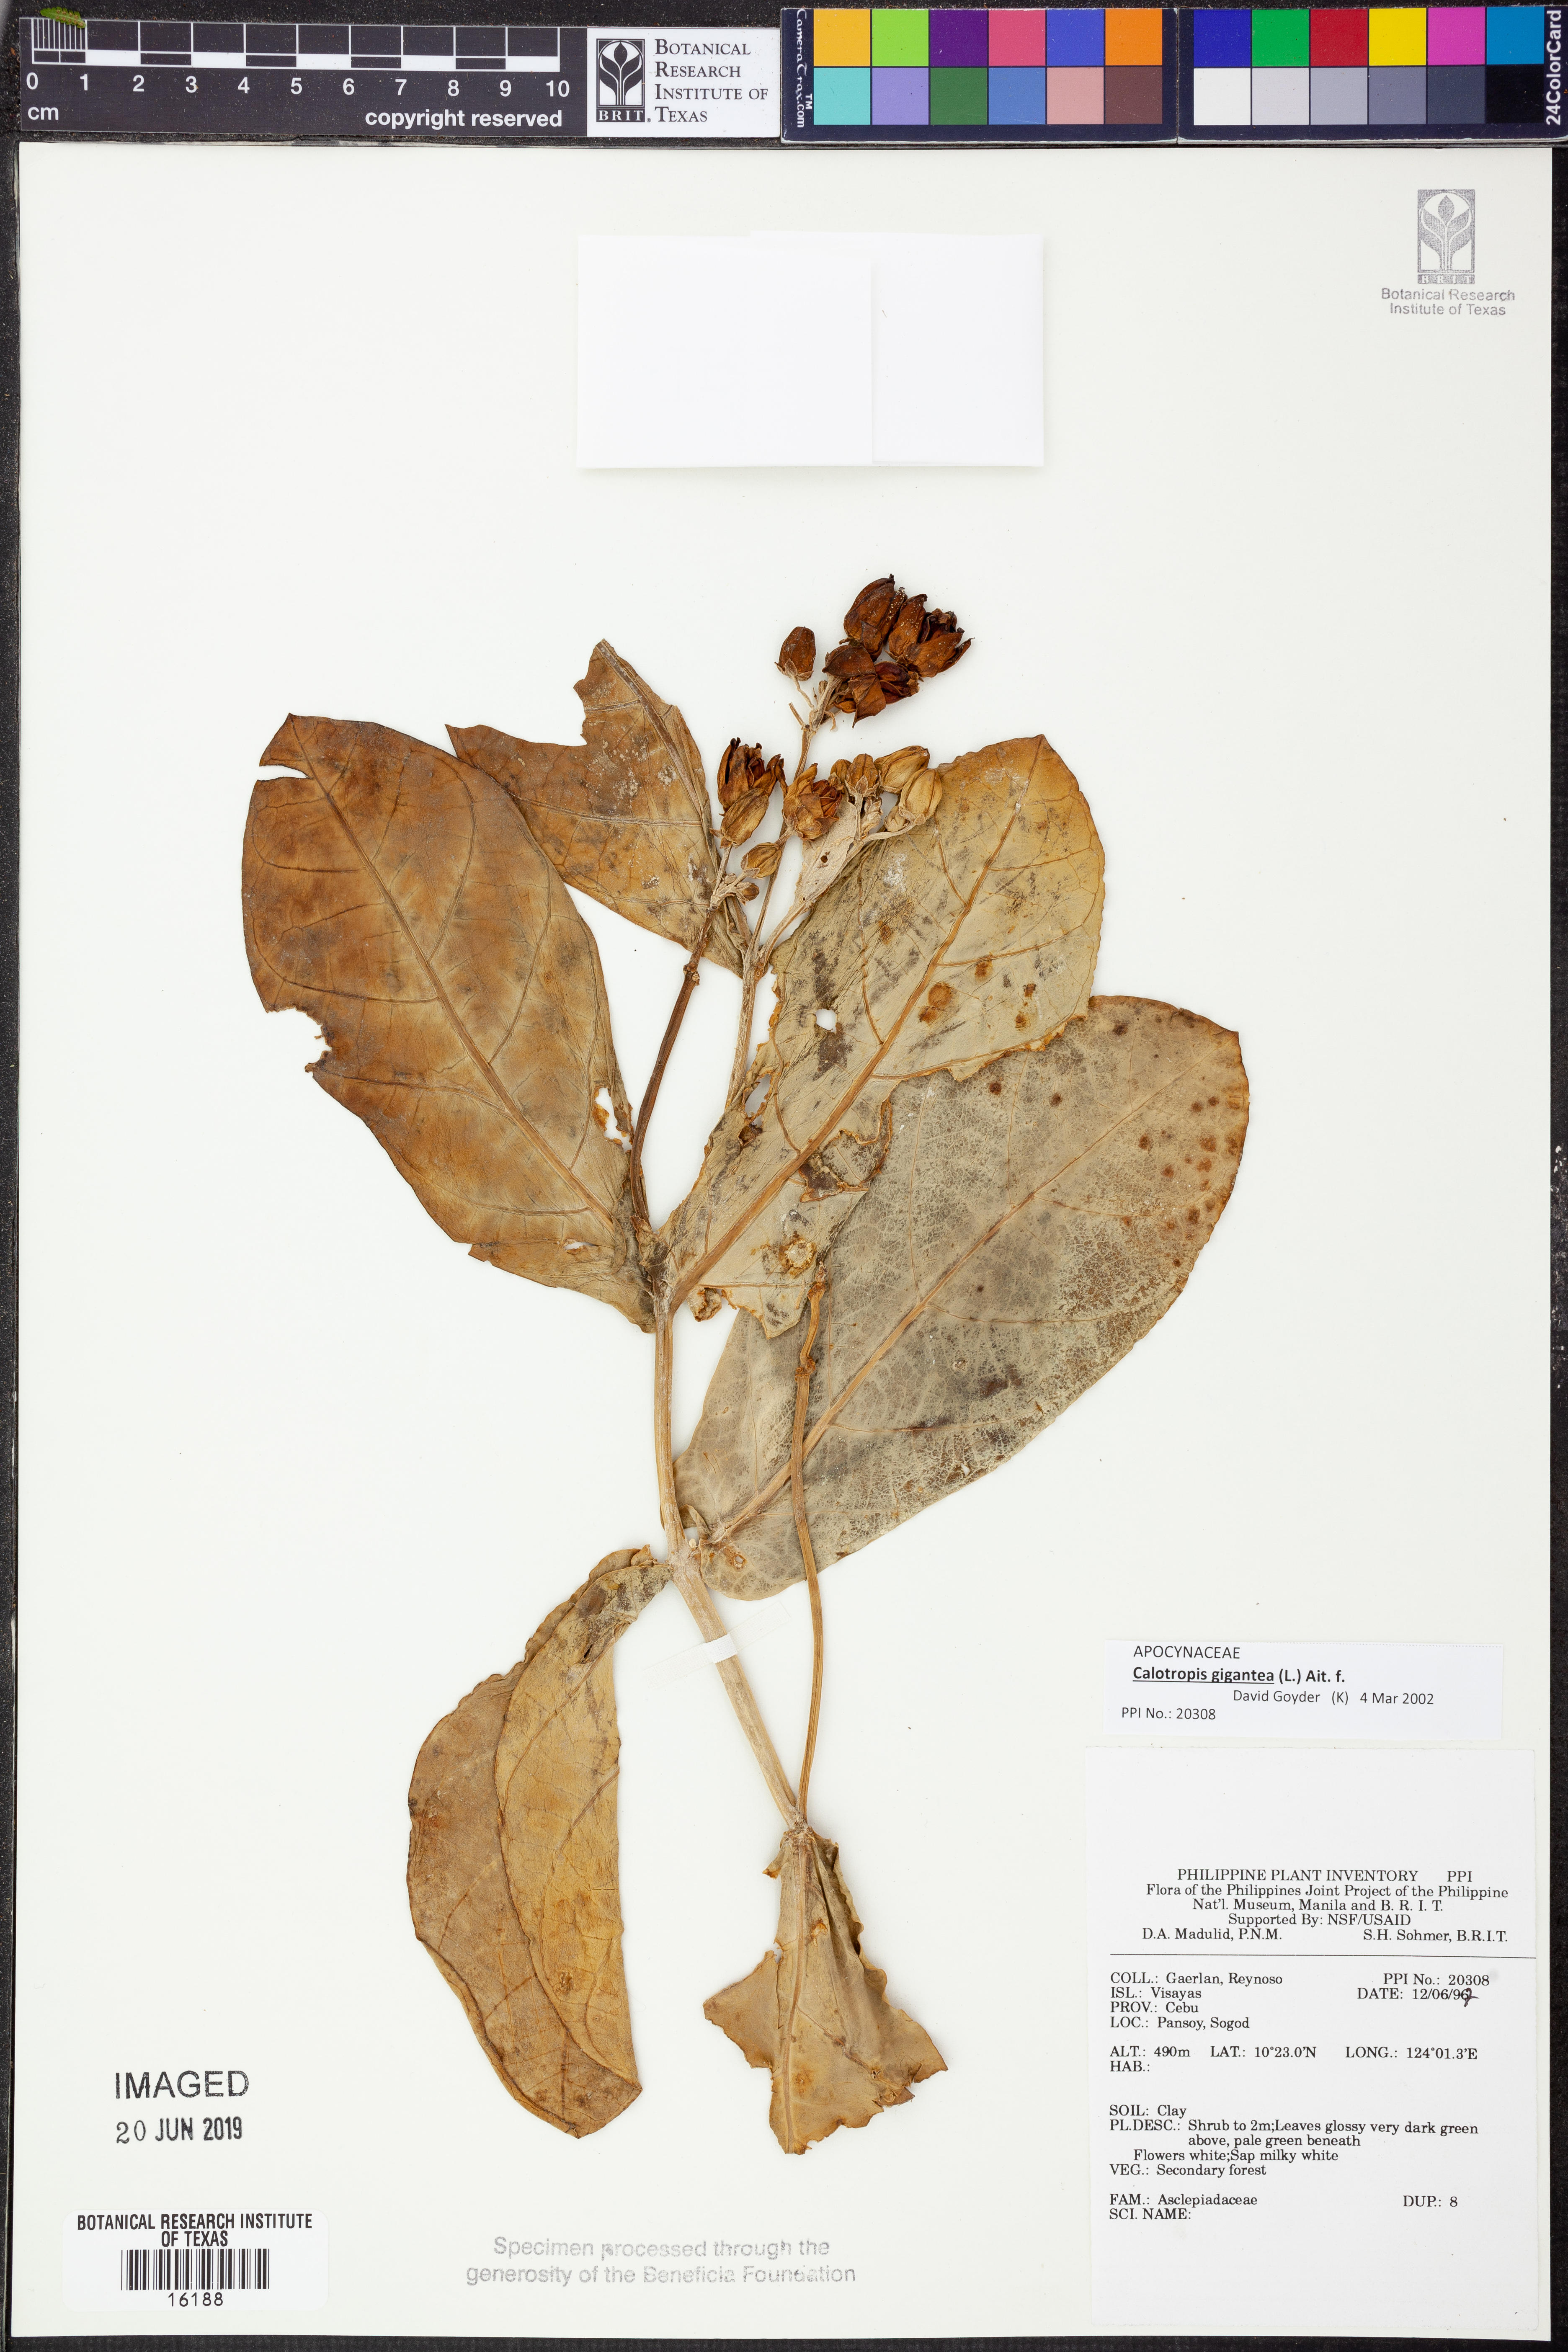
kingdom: Plantae
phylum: Tracheophyta
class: Magnoliopsida
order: Gentianales
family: Apocynaceae
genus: Calotropis
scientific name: Calotropis gigantea
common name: Crown flower
